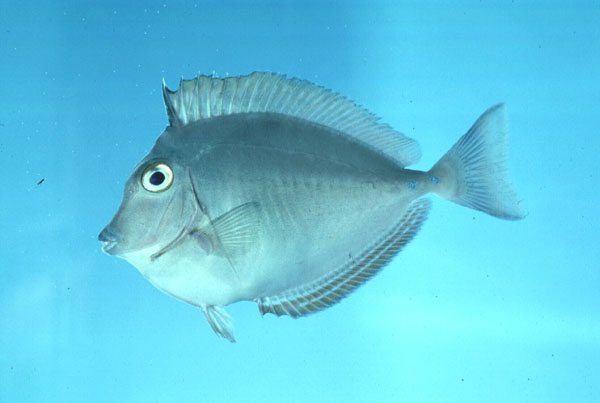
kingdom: Animalia
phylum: Chordata
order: Perciformes
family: Acanthuridae
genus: Naso
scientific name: Naso unicornis
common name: Bluespine unicornfish
